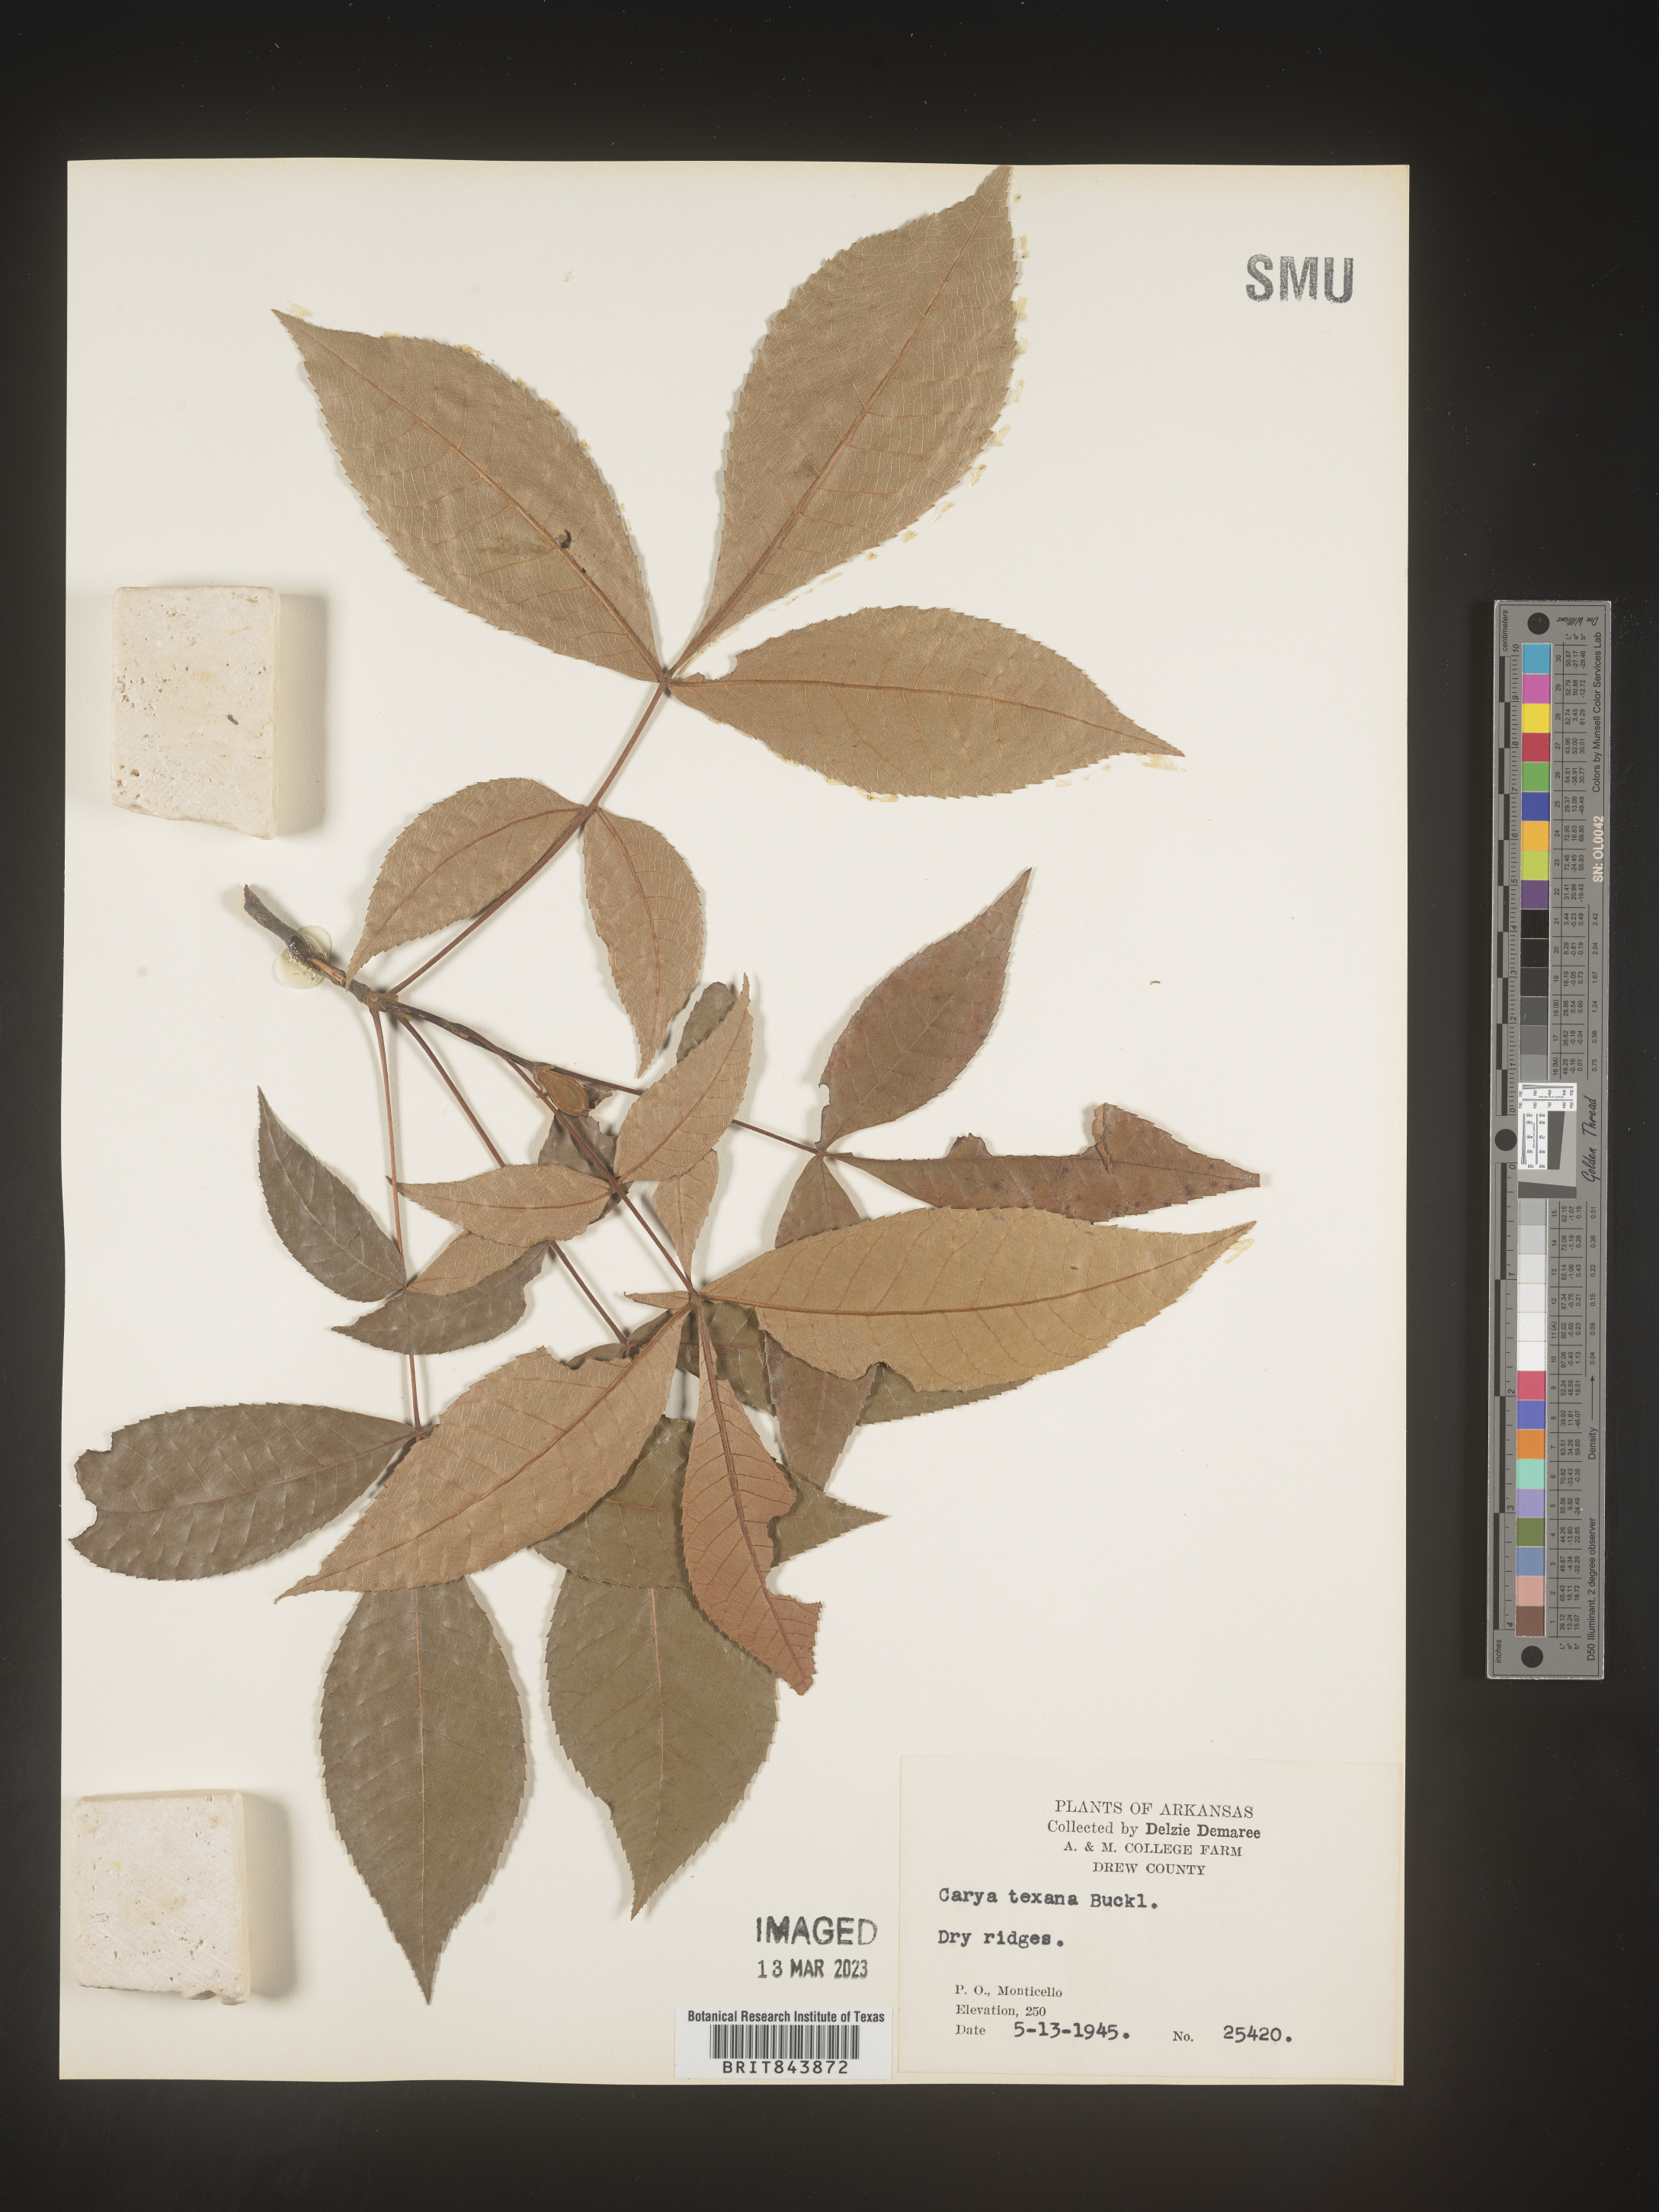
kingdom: Plantae
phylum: Tracheophyta
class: Magnoliopsida
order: Fagales
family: Juglandaceae
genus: Carya
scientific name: Carya texana
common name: Black hickory
